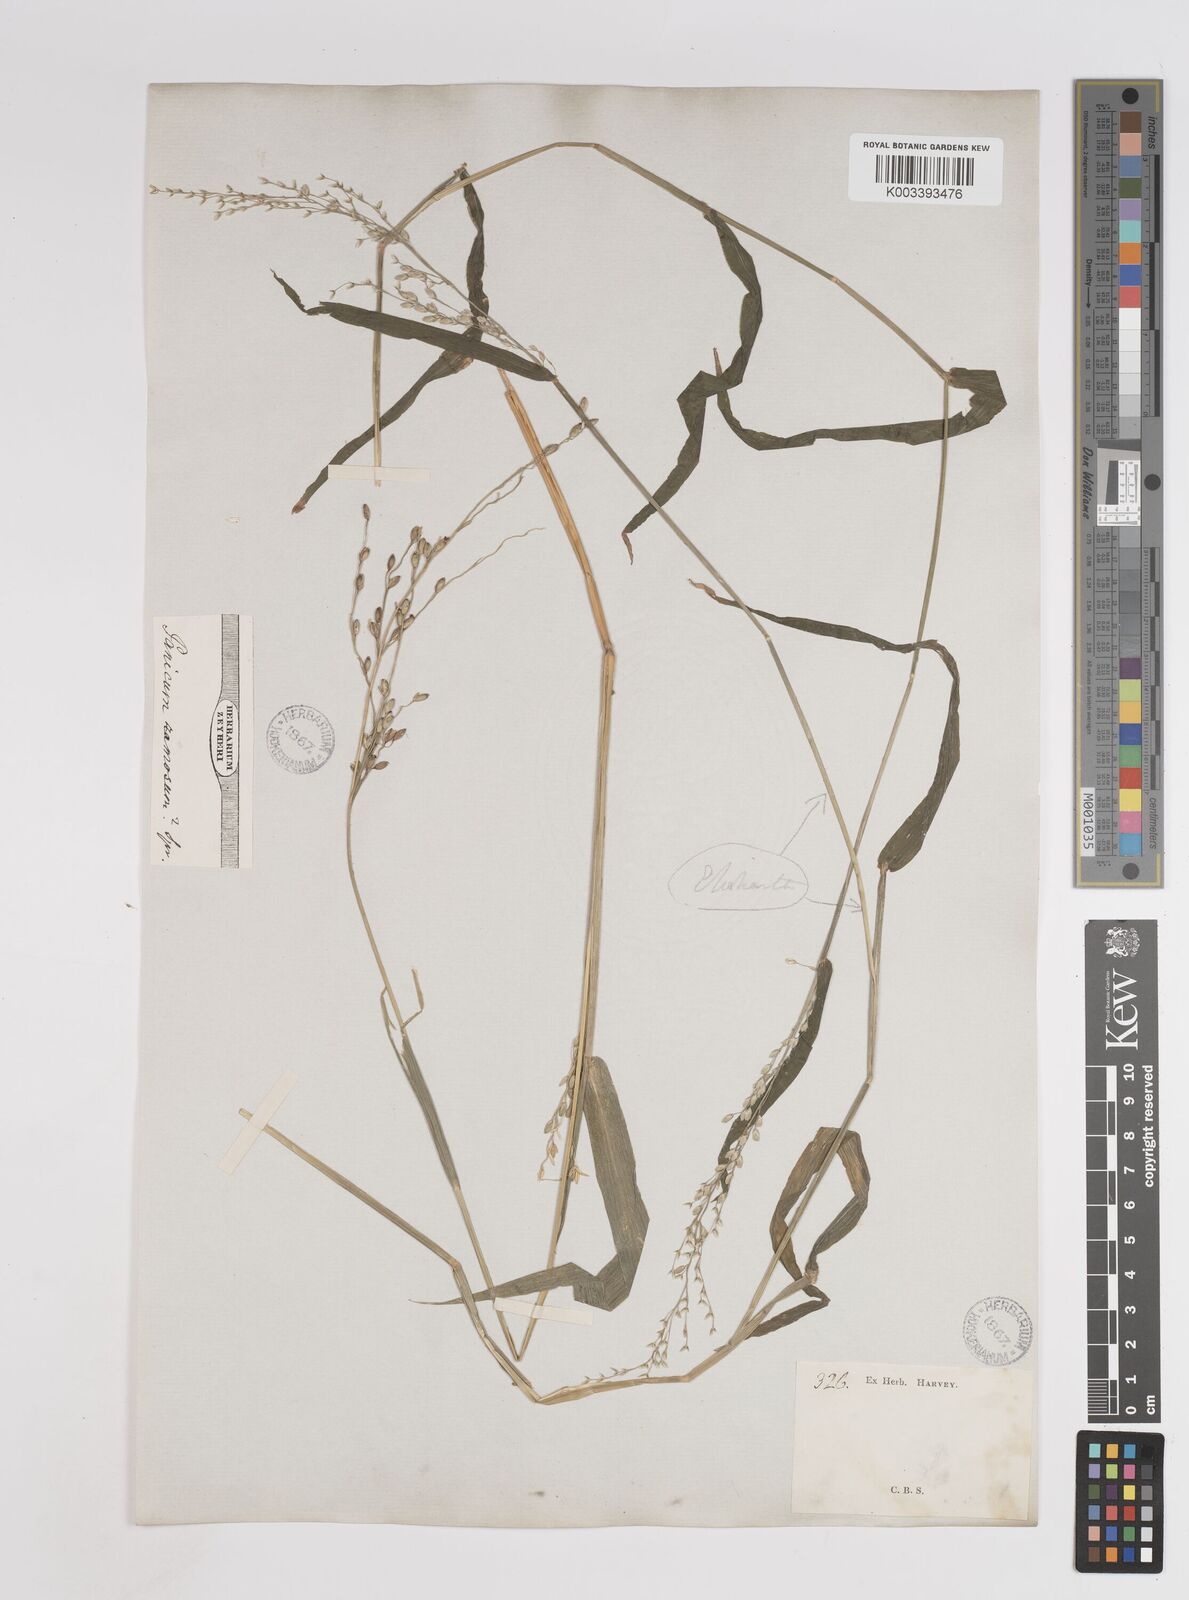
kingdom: Plantae
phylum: Tracheophyta
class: Liliopsida
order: Poales
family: Poaceae
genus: Panicum
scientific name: Panicum deustum
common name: Reed panicum
